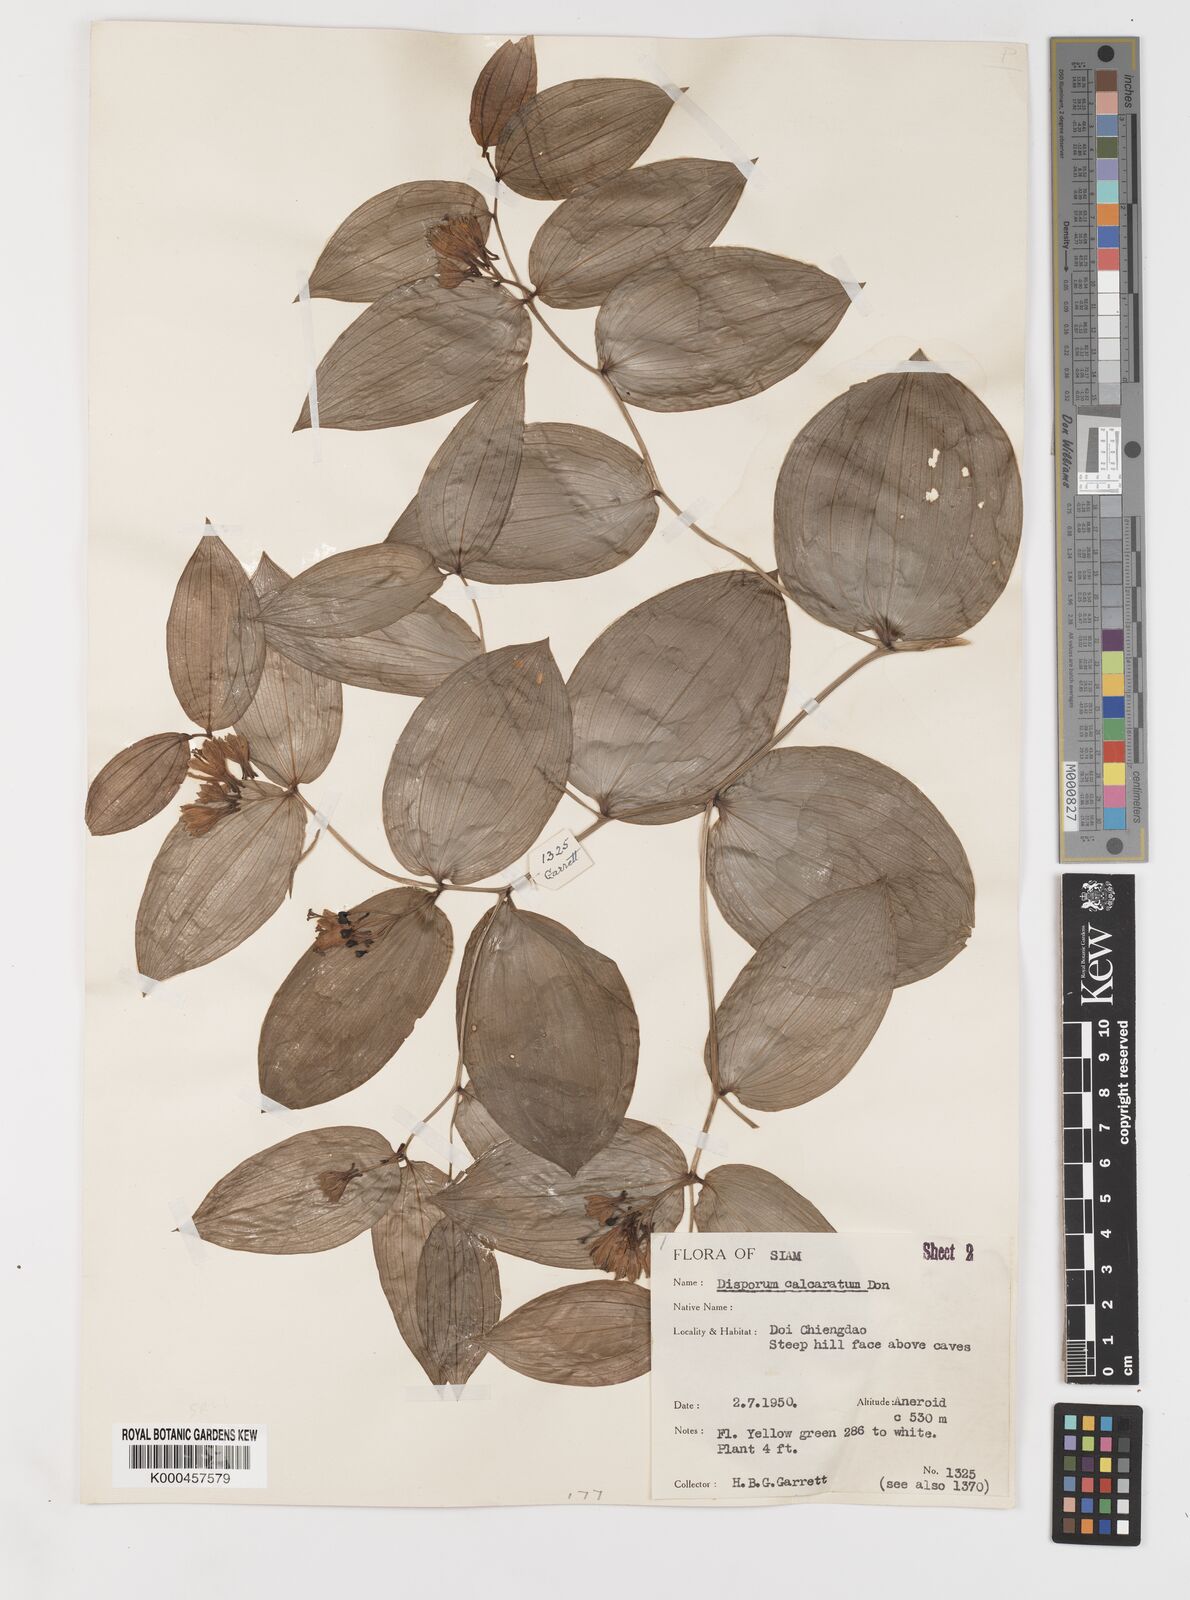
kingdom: Plantae
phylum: Tracheophyta
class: Liliopsida
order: Liliales
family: Colchicaceae
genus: Disporum
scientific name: Disporum calcaratum
